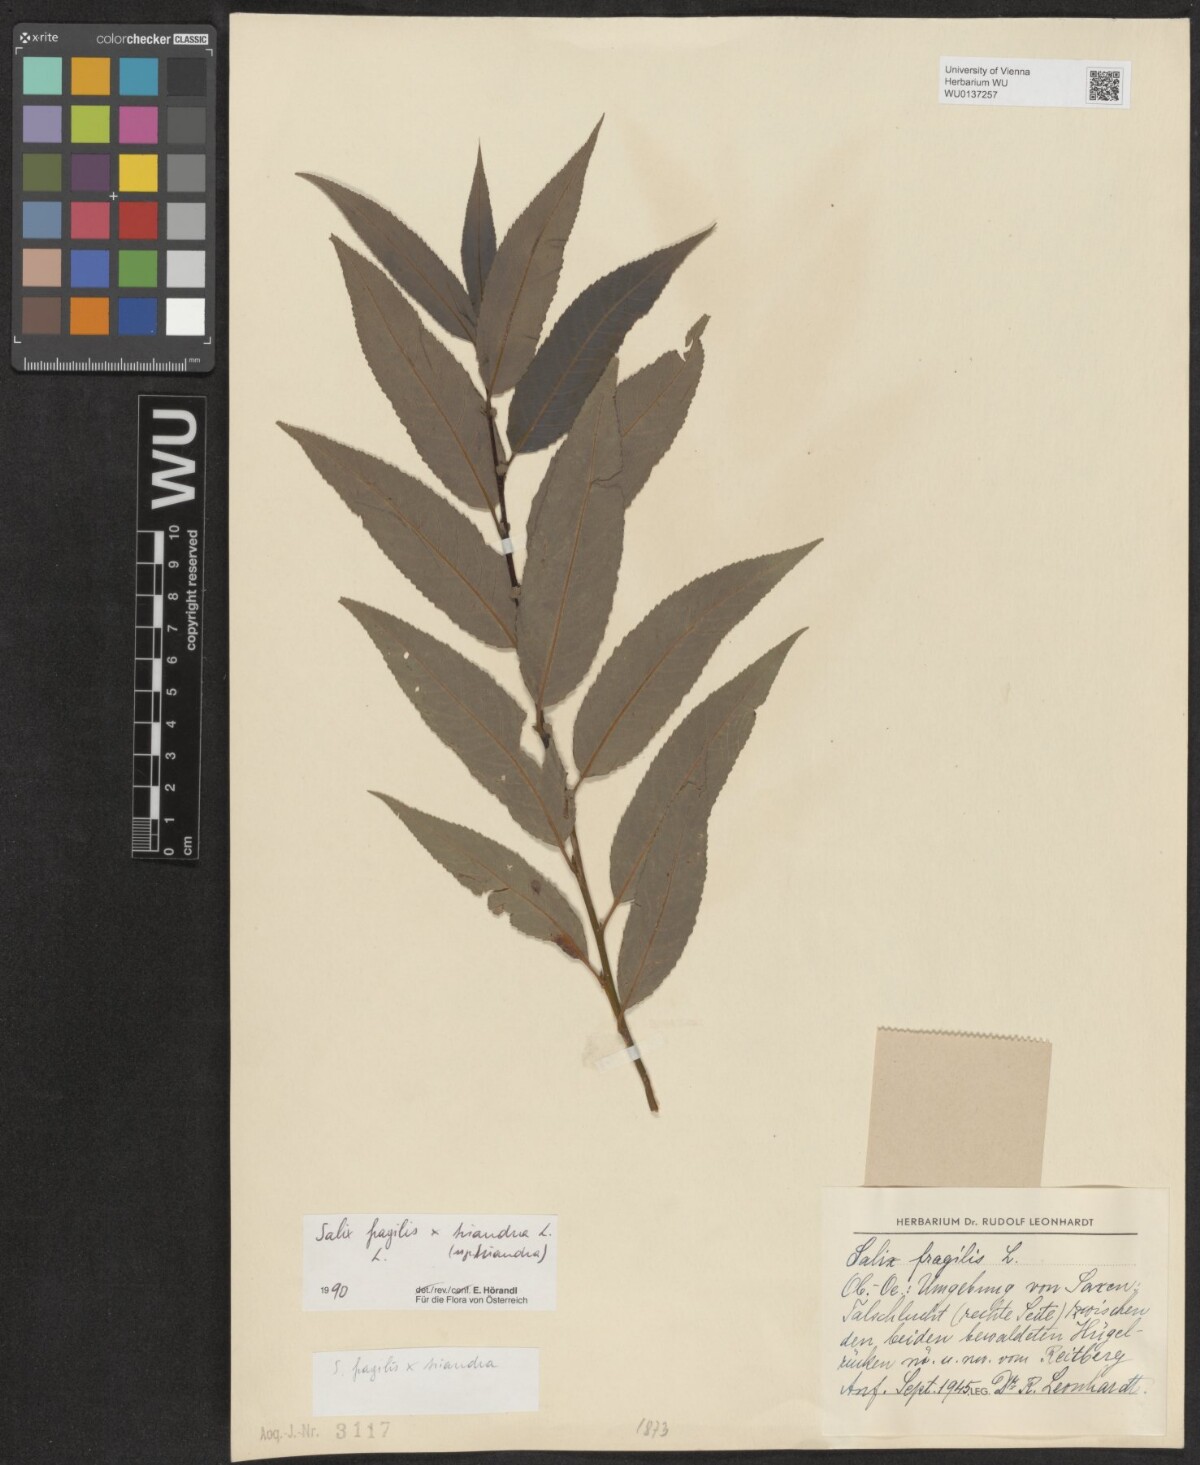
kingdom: Plantae
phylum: Tracheophyta
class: Magnoliopsida
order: Malpighiales
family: Salicaceae
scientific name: Salicaceae
